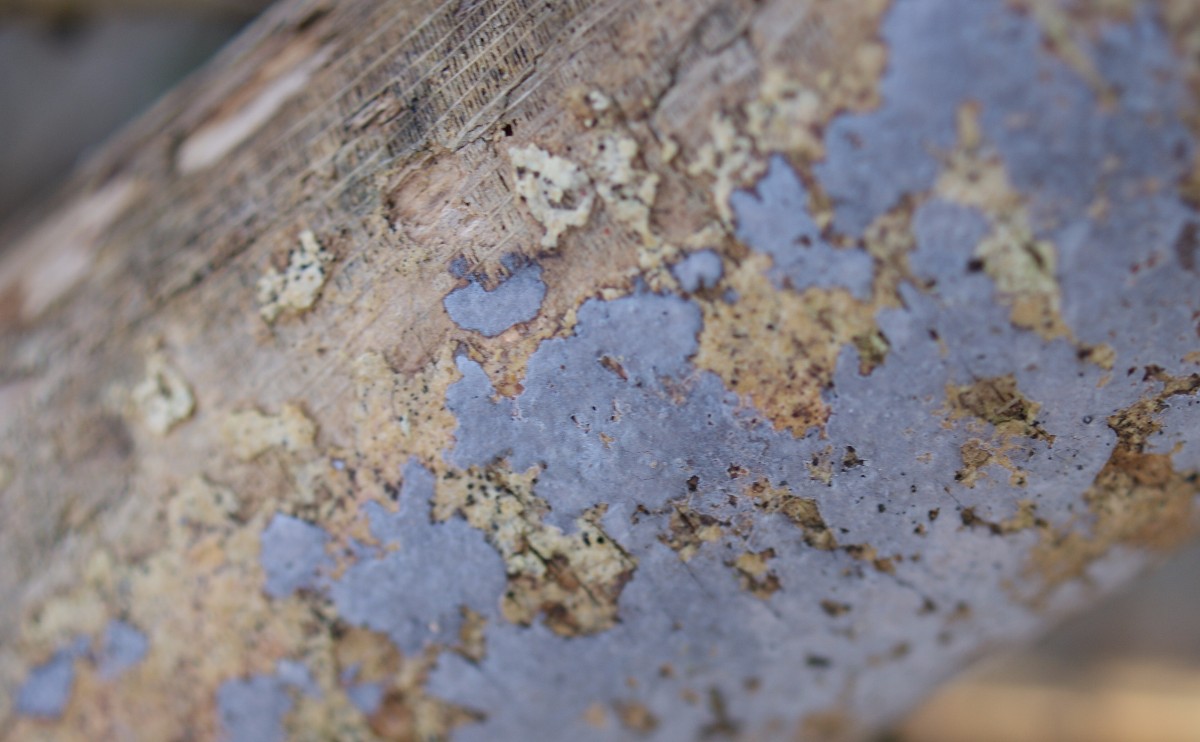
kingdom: Fungi
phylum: Basidiomycota
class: Agaricomycetes
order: Russulales
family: Peniophoraceae
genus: Peniophora
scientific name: Peniophora limitata
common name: mørkrandet voksskind
